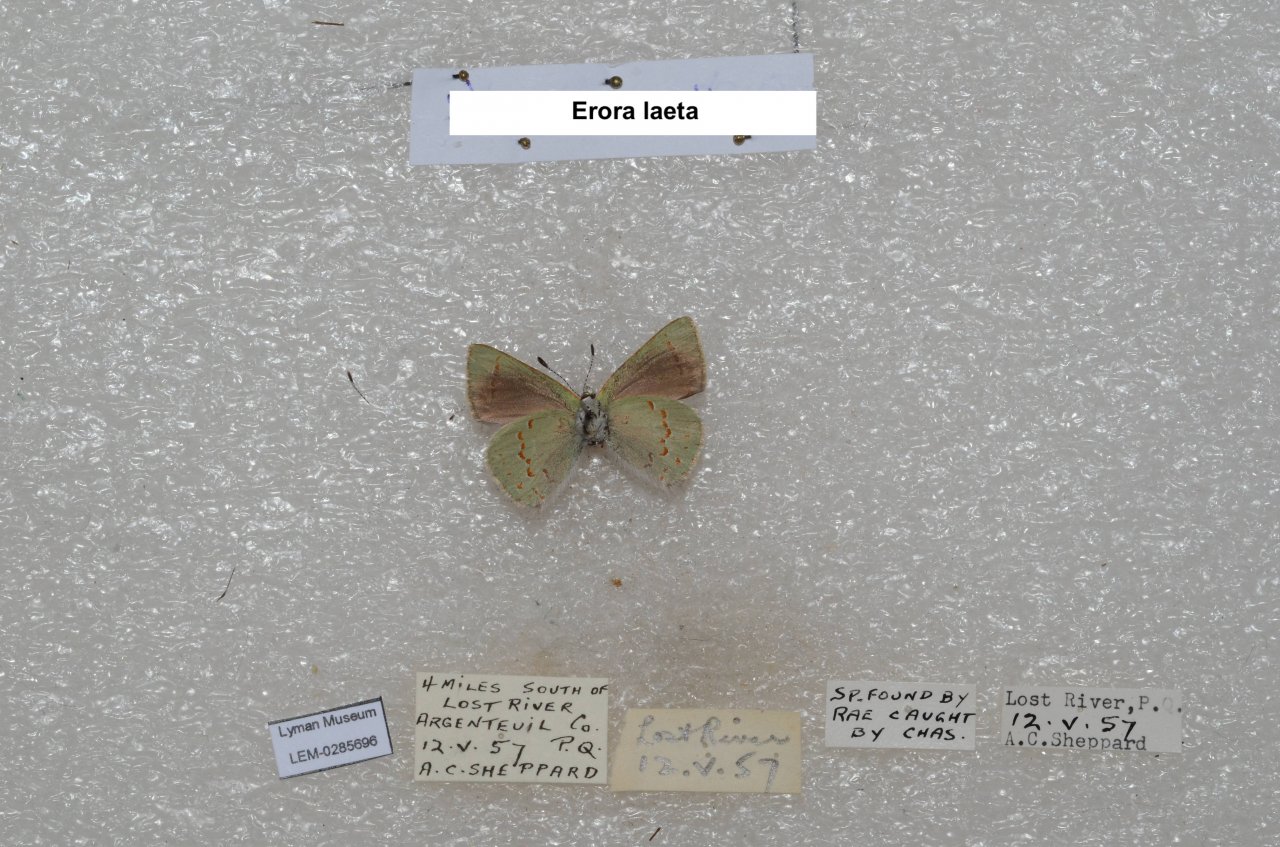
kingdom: Animalia
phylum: Arthropoda
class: Insecta
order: Lepidoptera
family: Lycaenidae
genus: Erora
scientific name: Erora laeta
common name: Early Hairstreak
